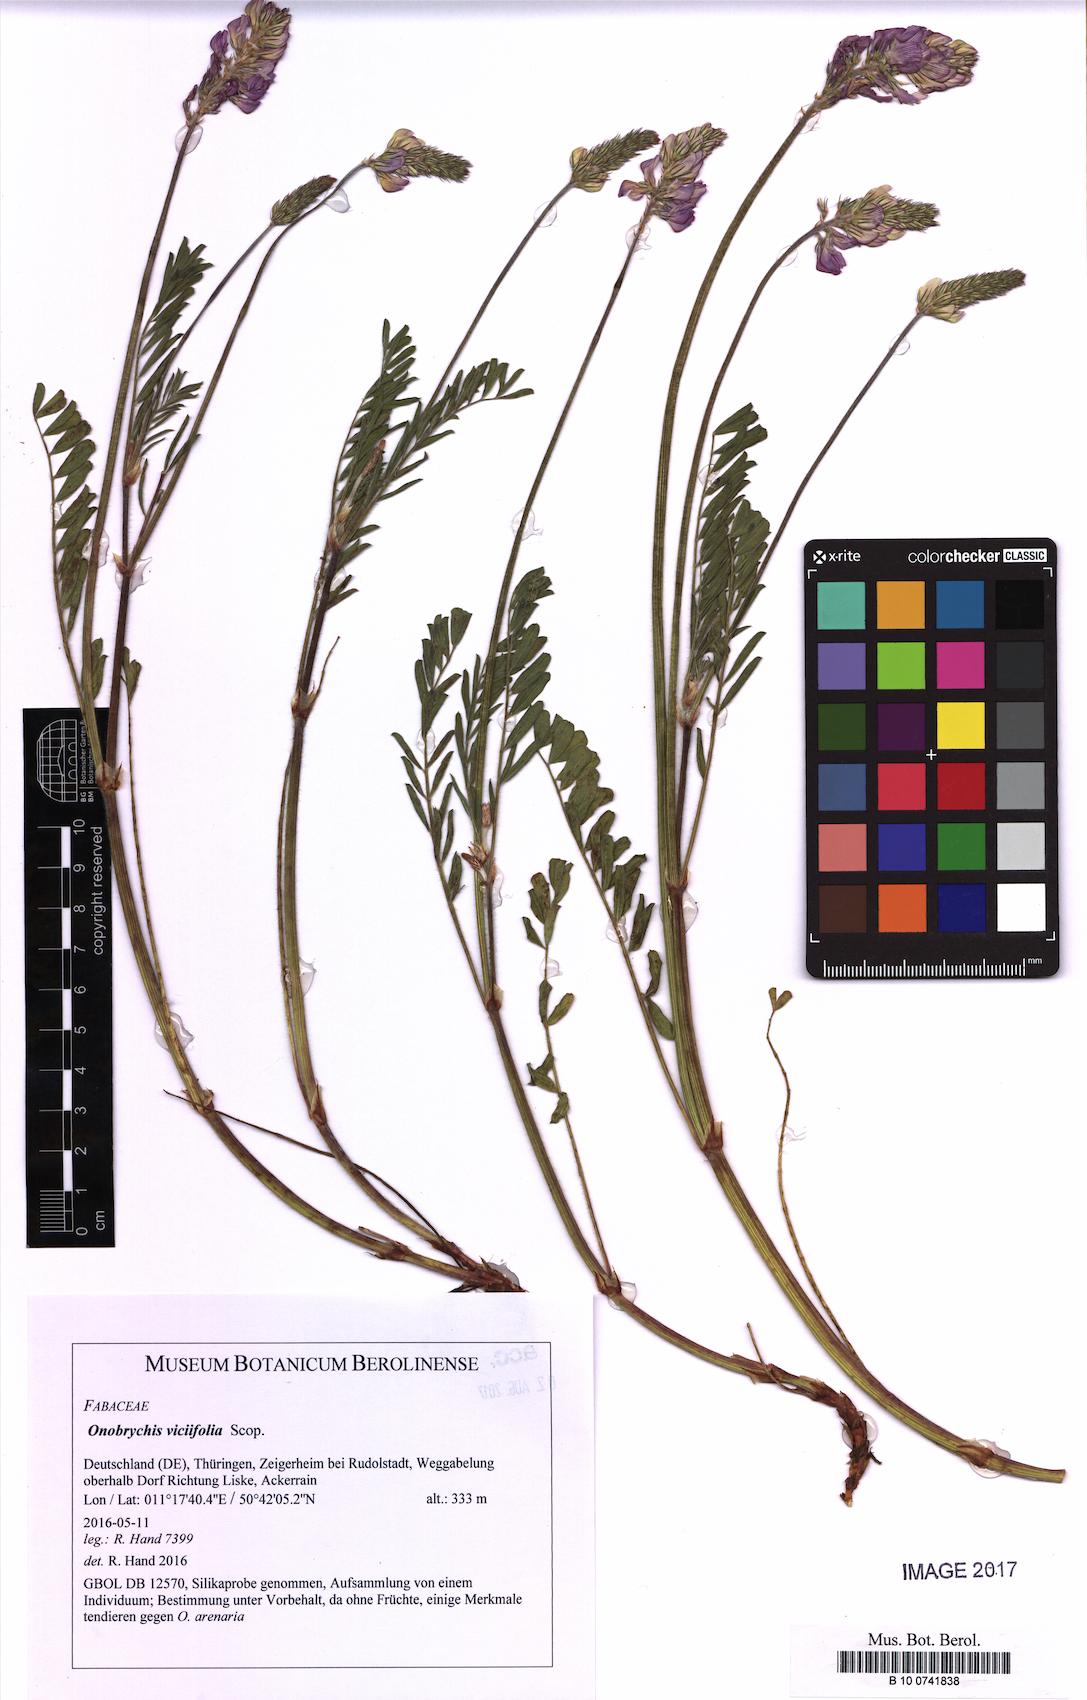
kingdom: Plantae
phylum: Tracheophyta
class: Magnoliopsida
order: Fabales
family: Fabaceae
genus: Onobrychis
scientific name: Onobrychis viciifolia
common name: Sainfoin
